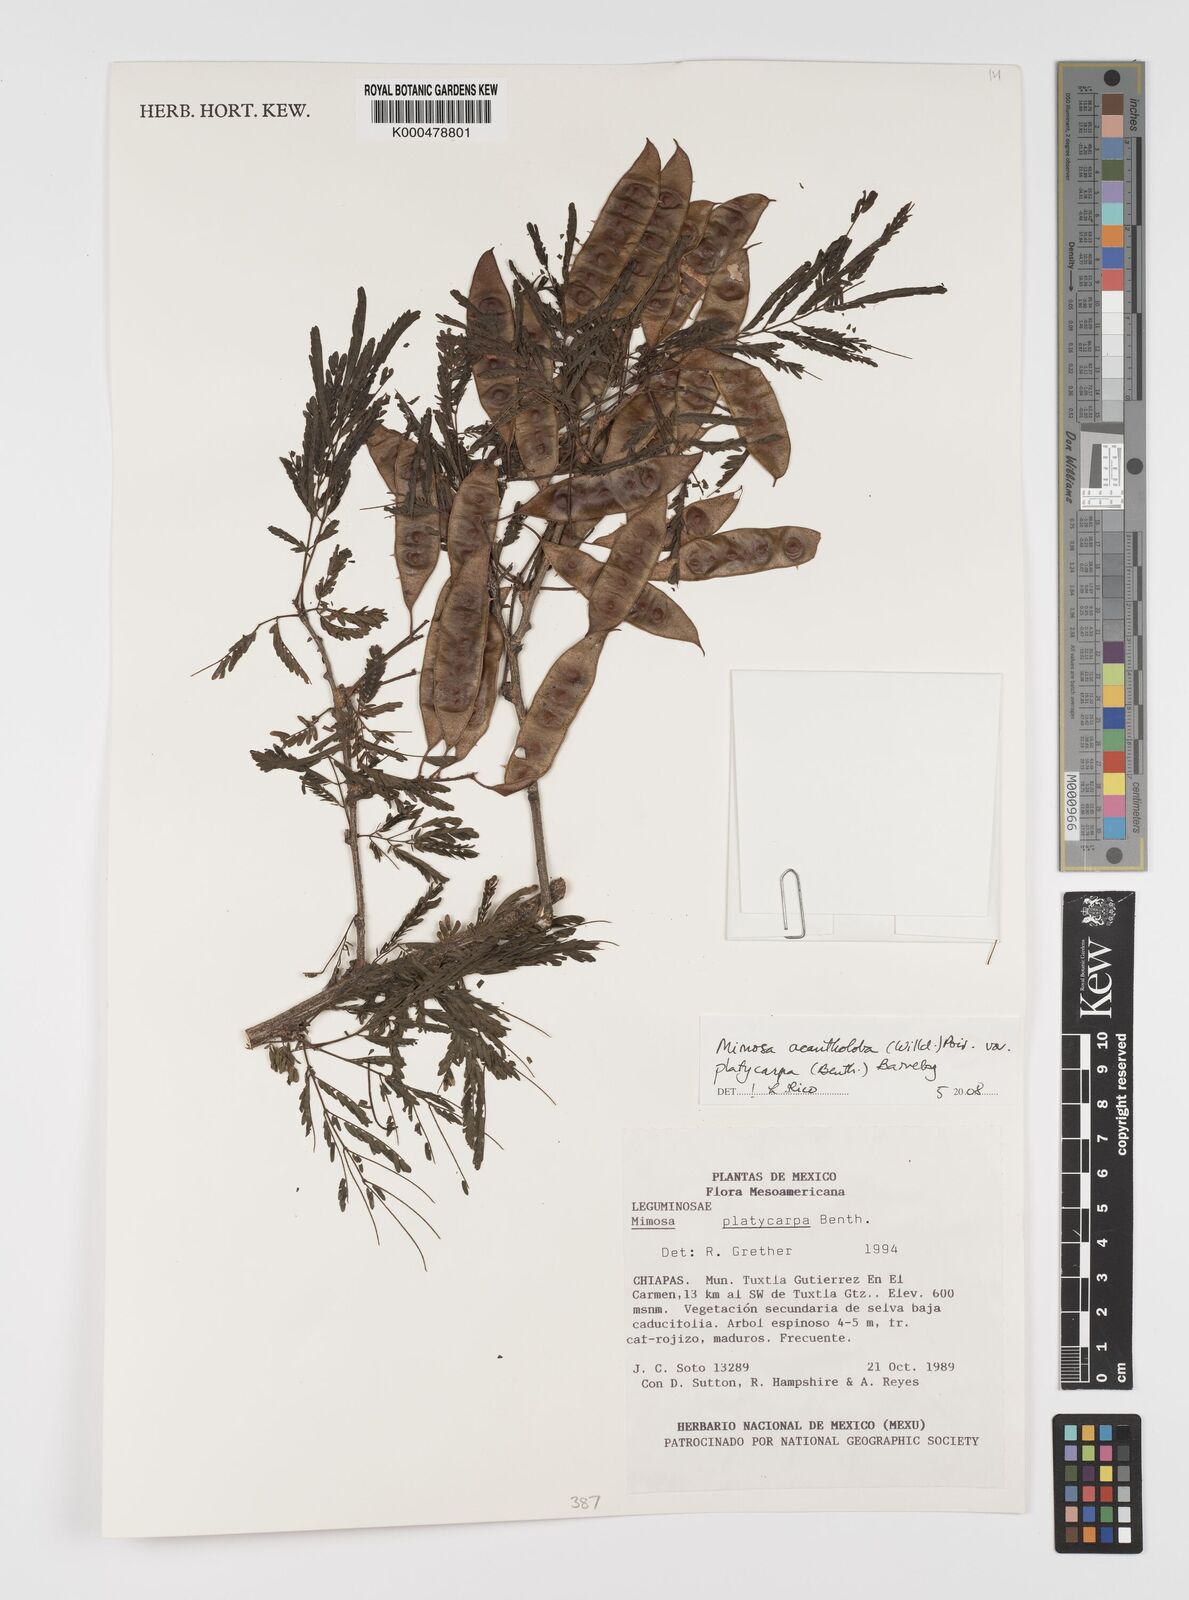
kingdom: Plantae
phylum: Tracheophyta
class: Magnoliopsida
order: Fabales
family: Fabaceae
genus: Mimosa
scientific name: Mimosa platycarpa
